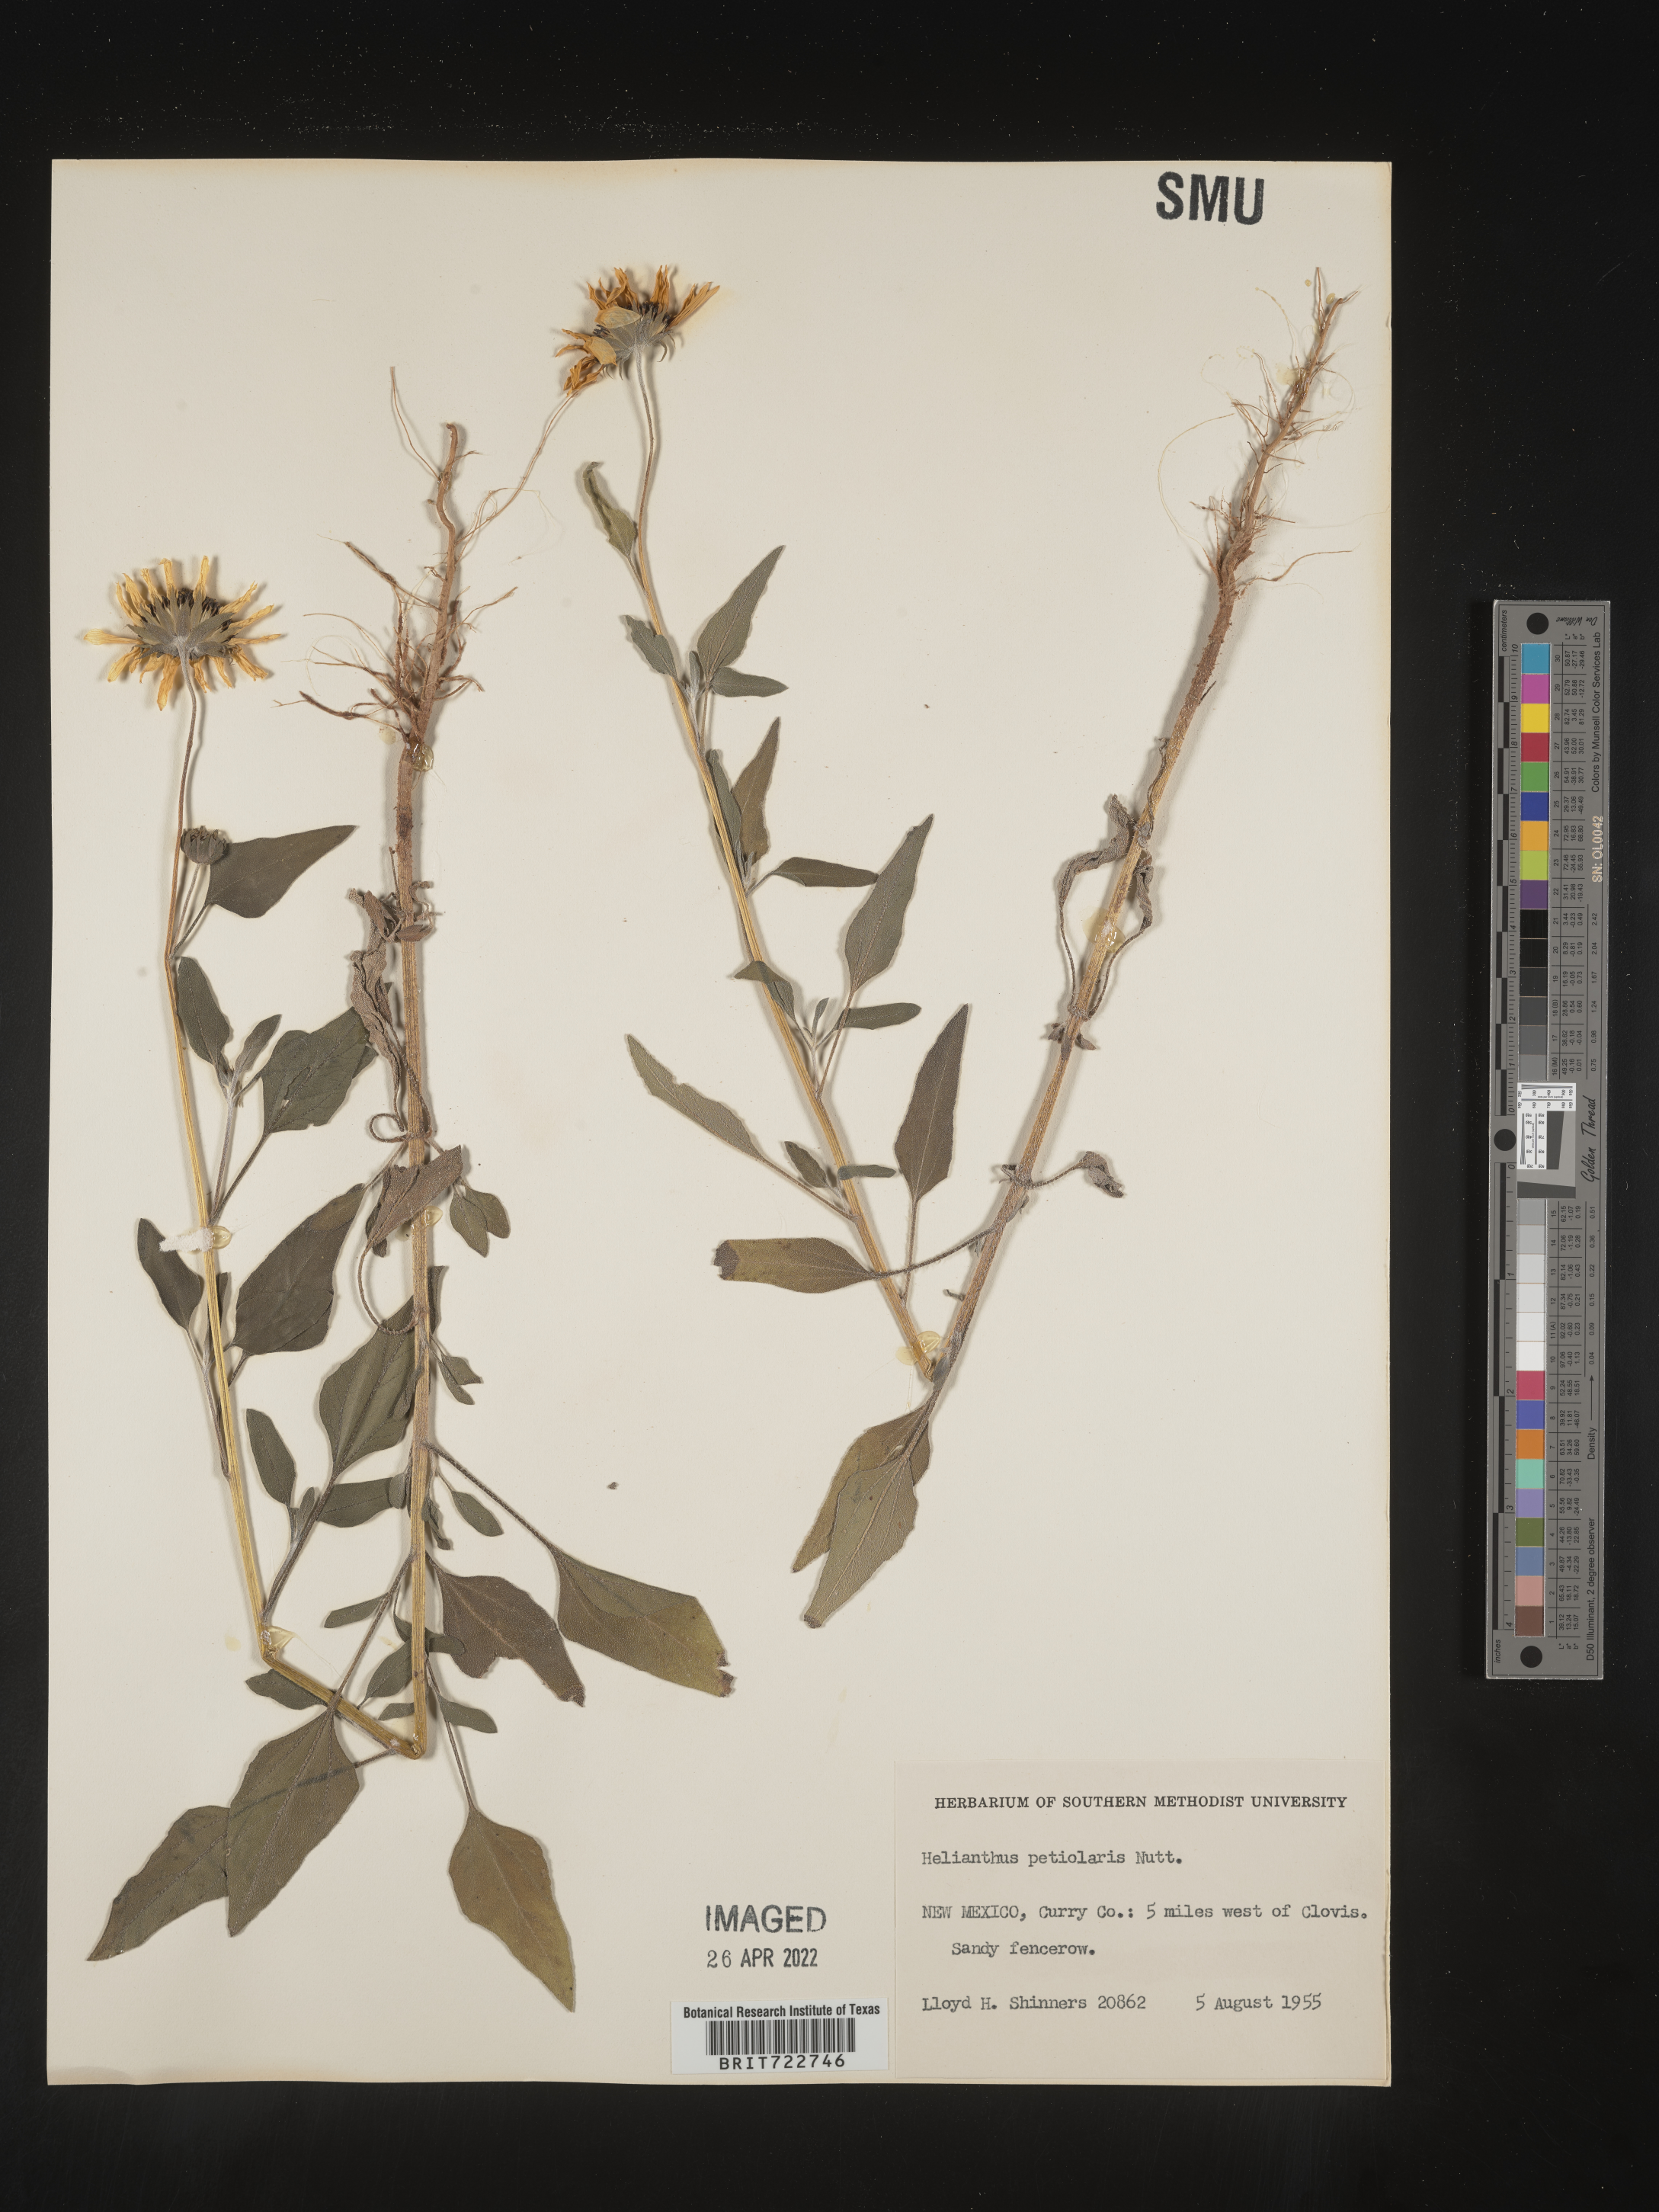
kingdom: Plantae
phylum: Tracheophyta
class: Magnoliopsida
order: Asterales
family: Asteraceae
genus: Helianthus
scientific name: Helianthus petiolaris
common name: Lesser sunflower
